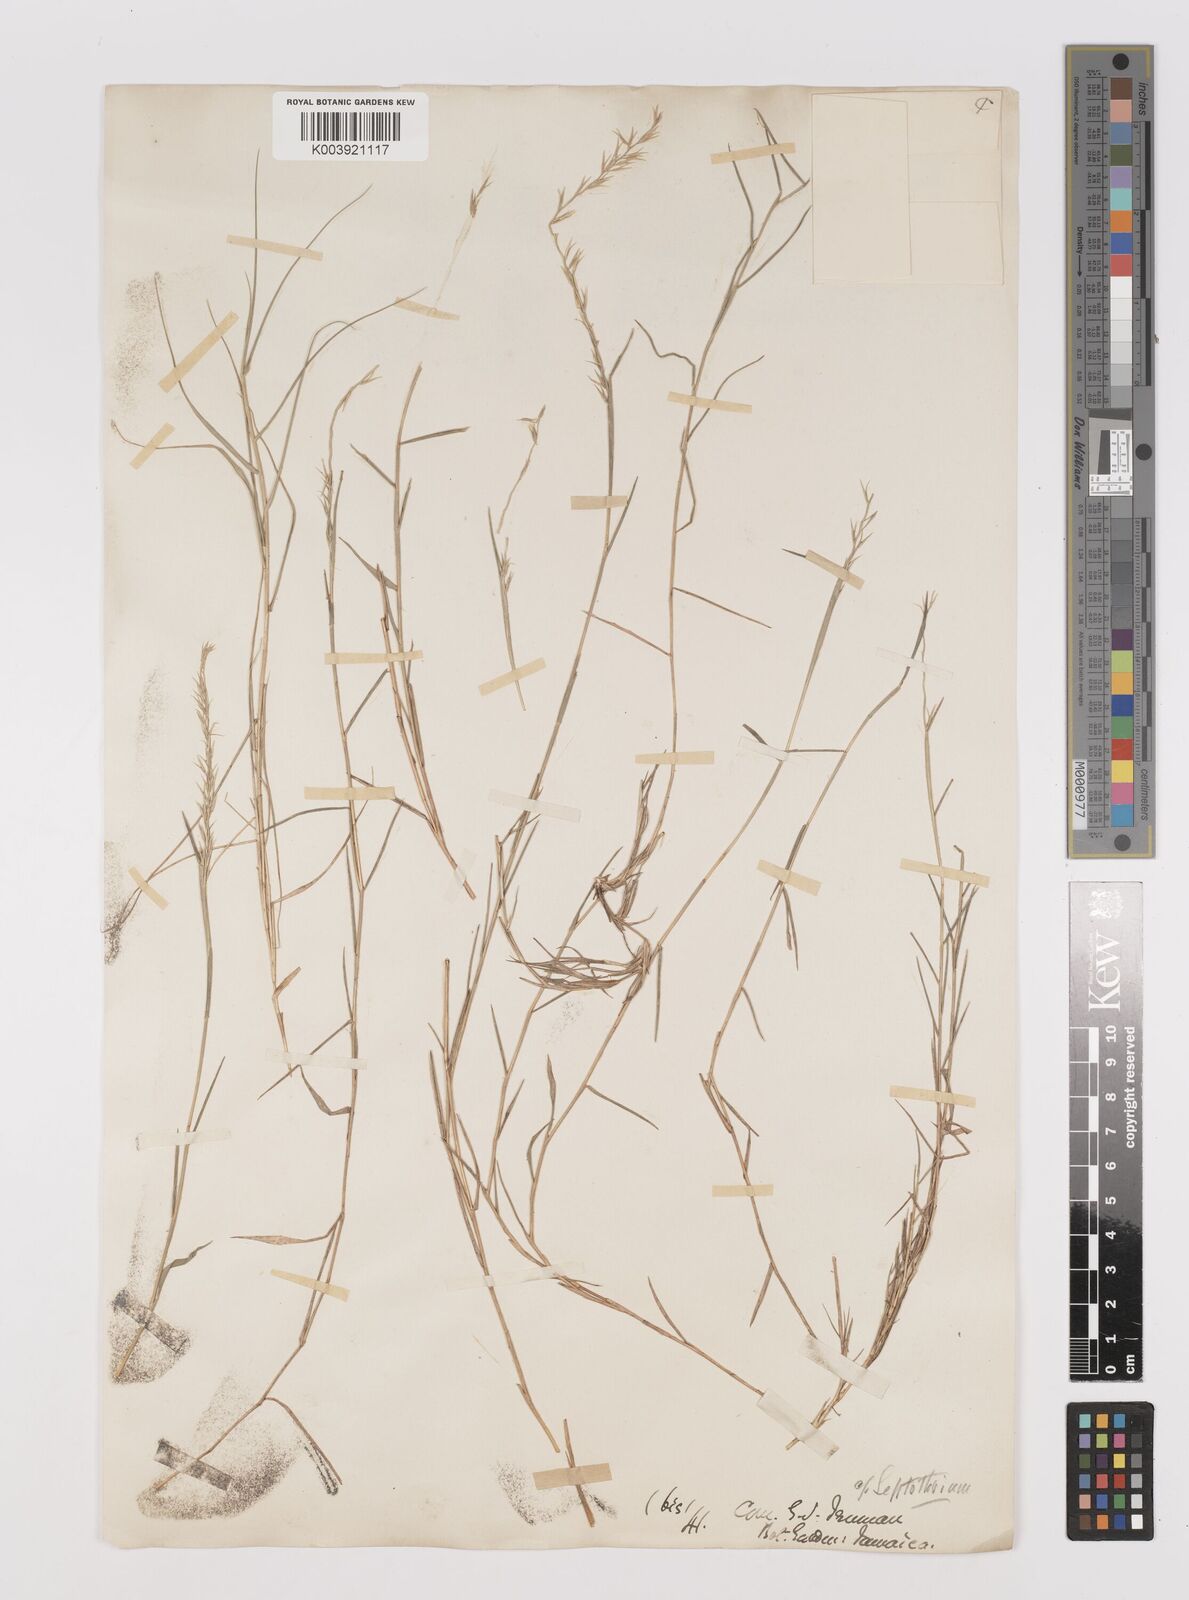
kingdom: Plantae
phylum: Tracheophyta
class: Liliopsida
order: Poales
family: Poaceae
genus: Leptothrium
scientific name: Leptothrium rigidum
